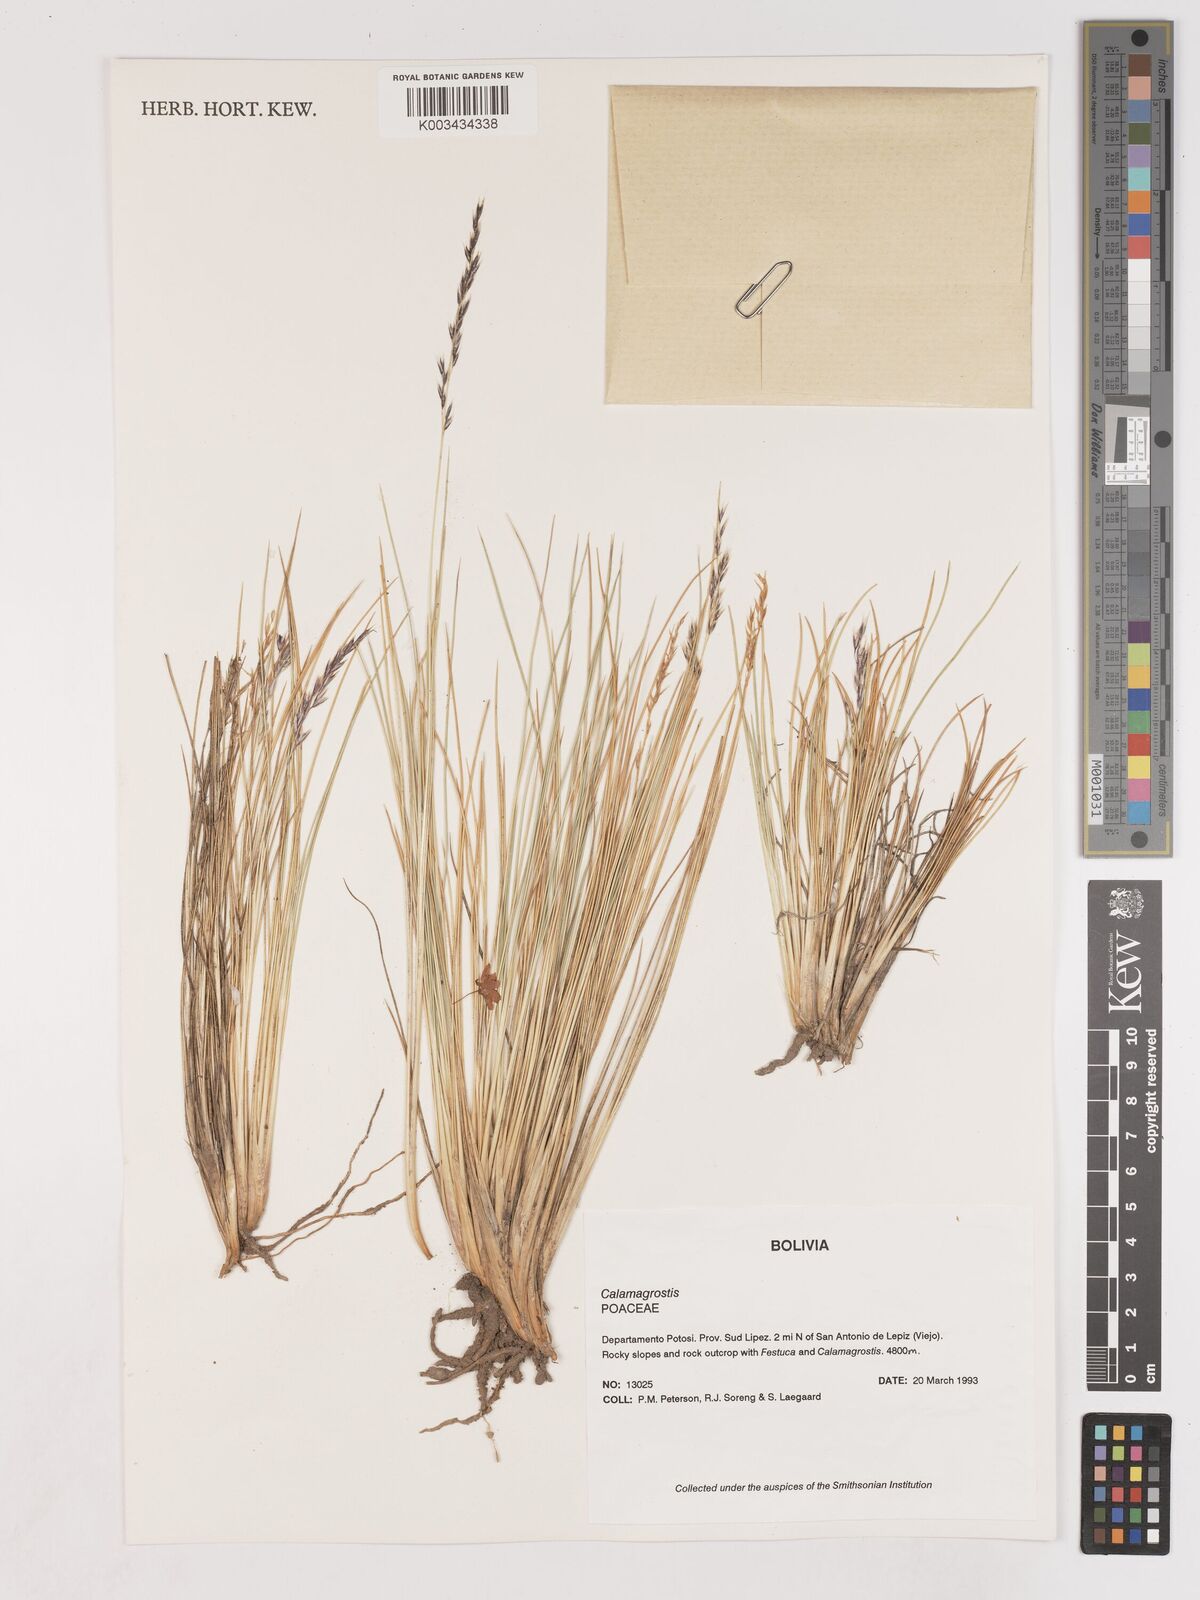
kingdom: Plantae
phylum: Tracheophyta
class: Liliopsida
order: Poales
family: Poaceae
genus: Cinnagrostis
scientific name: Cinnagrostis violacea
